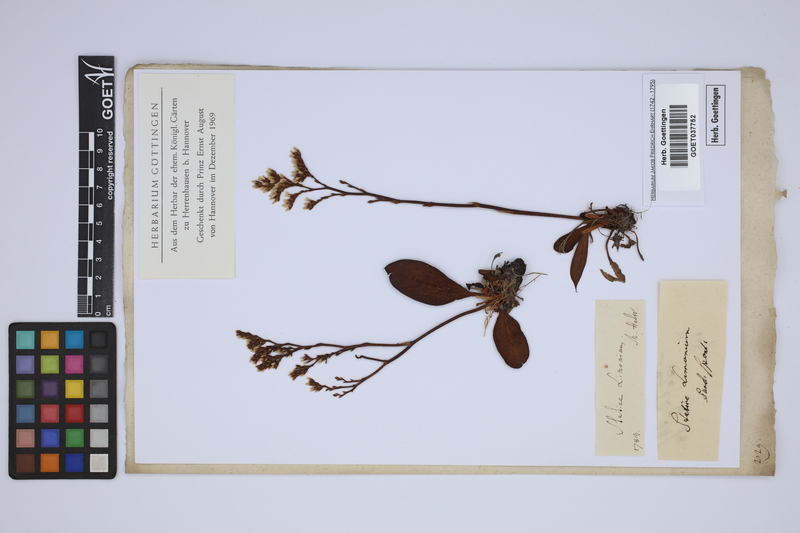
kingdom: Plantae
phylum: Tracheophyta
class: Magnoliopsida
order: Caryophyllales
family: Plumbaginaceae
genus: Limonium
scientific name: Limonium vulgare
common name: Common sea-lavender
